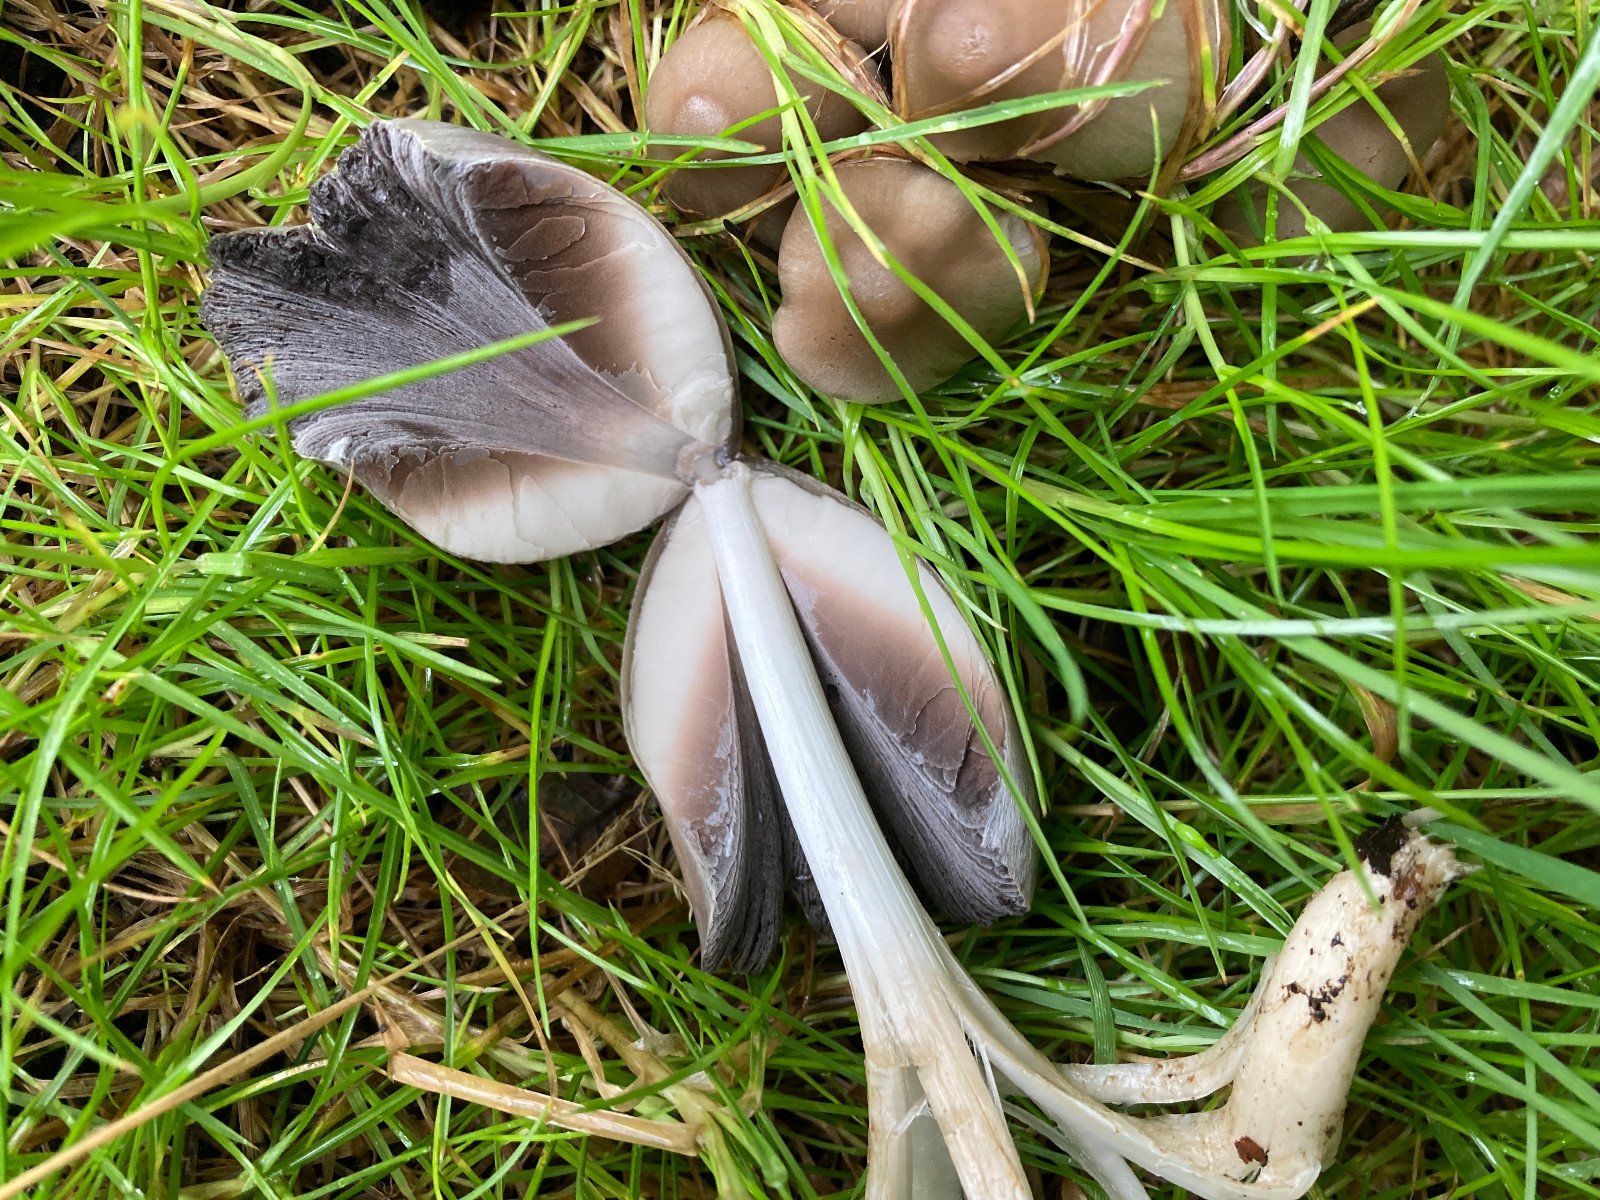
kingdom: Fungi
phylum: Basidiomycota
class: Agaricomycetes
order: Agaricales
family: Psathyrellaceae
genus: Coprinopsis
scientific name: Coprinopsis acuminata
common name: kegle-blækhat
